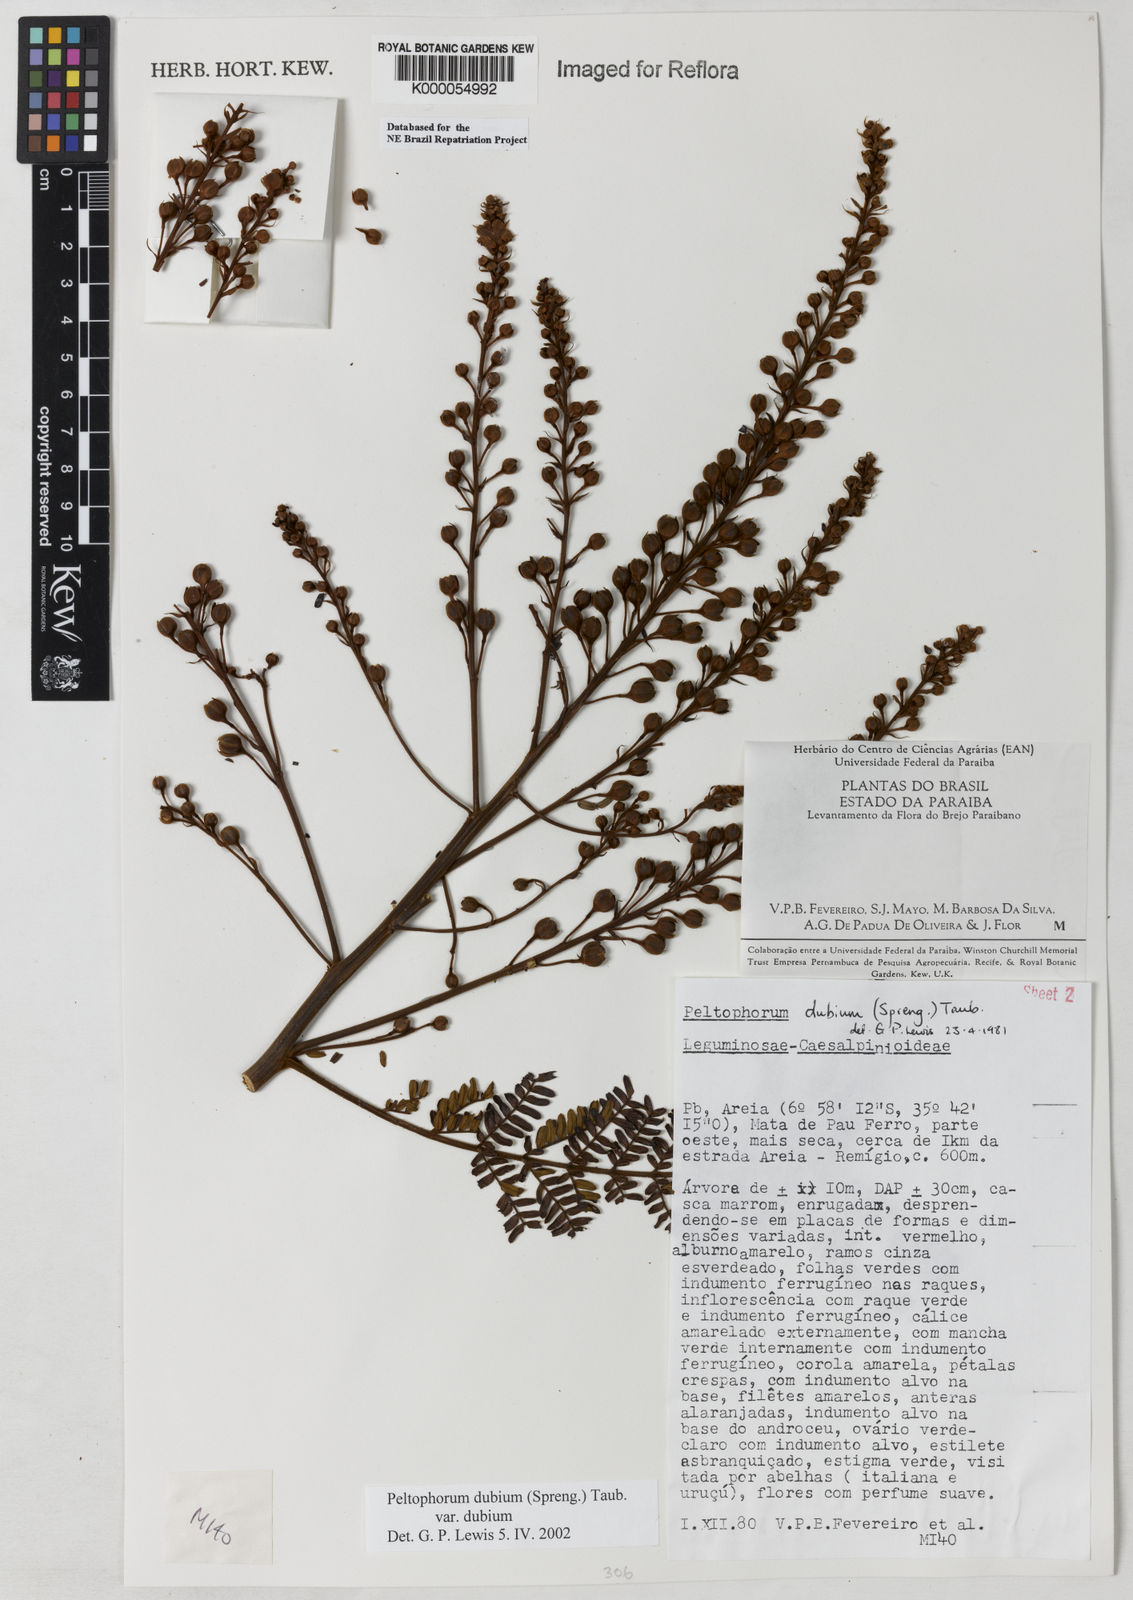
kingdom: Plantae
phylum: Tracheophyta
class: Magnoliopsida
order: Fabales
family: Fabaceae
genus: Peltophorum
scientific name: Peltophorum dubium
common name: Horsebush
